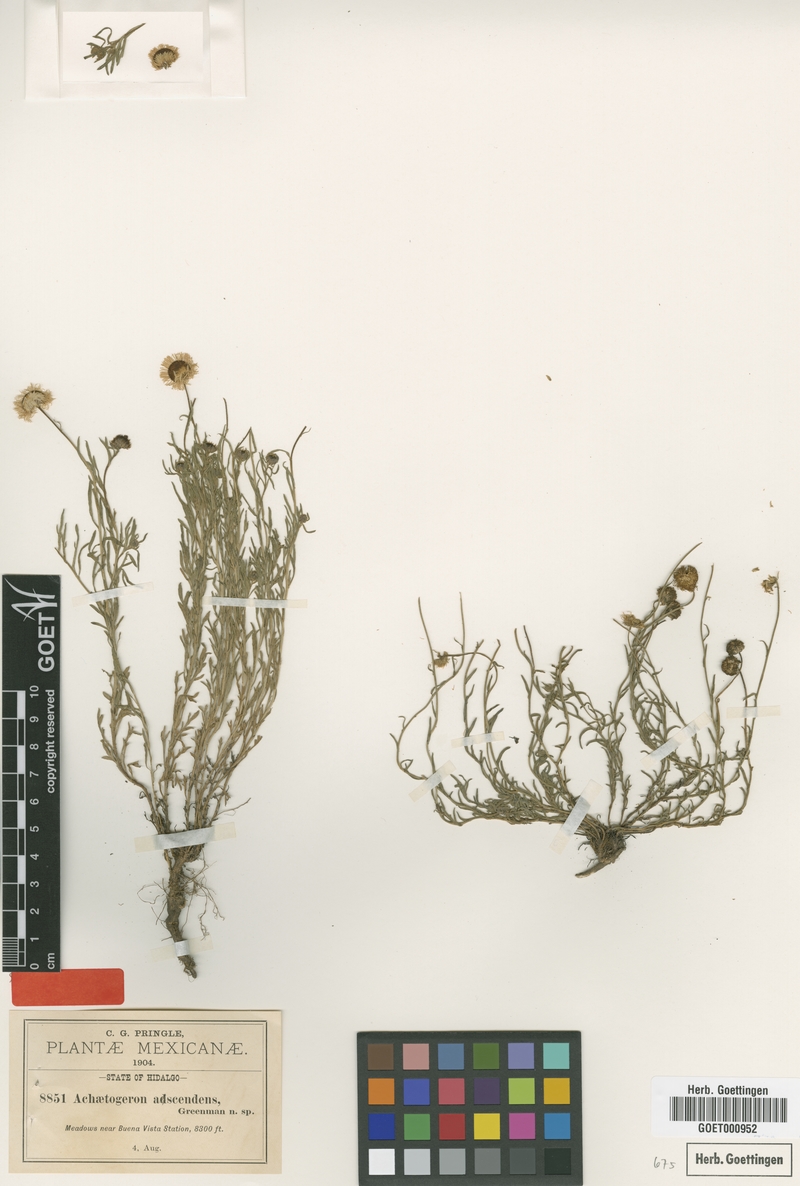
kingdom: Plantae
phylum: Tracheophyta
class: Magnoliopsida
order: Asterales
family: Asteraceae
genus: Erigeron
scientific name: Erigeron adscendens
